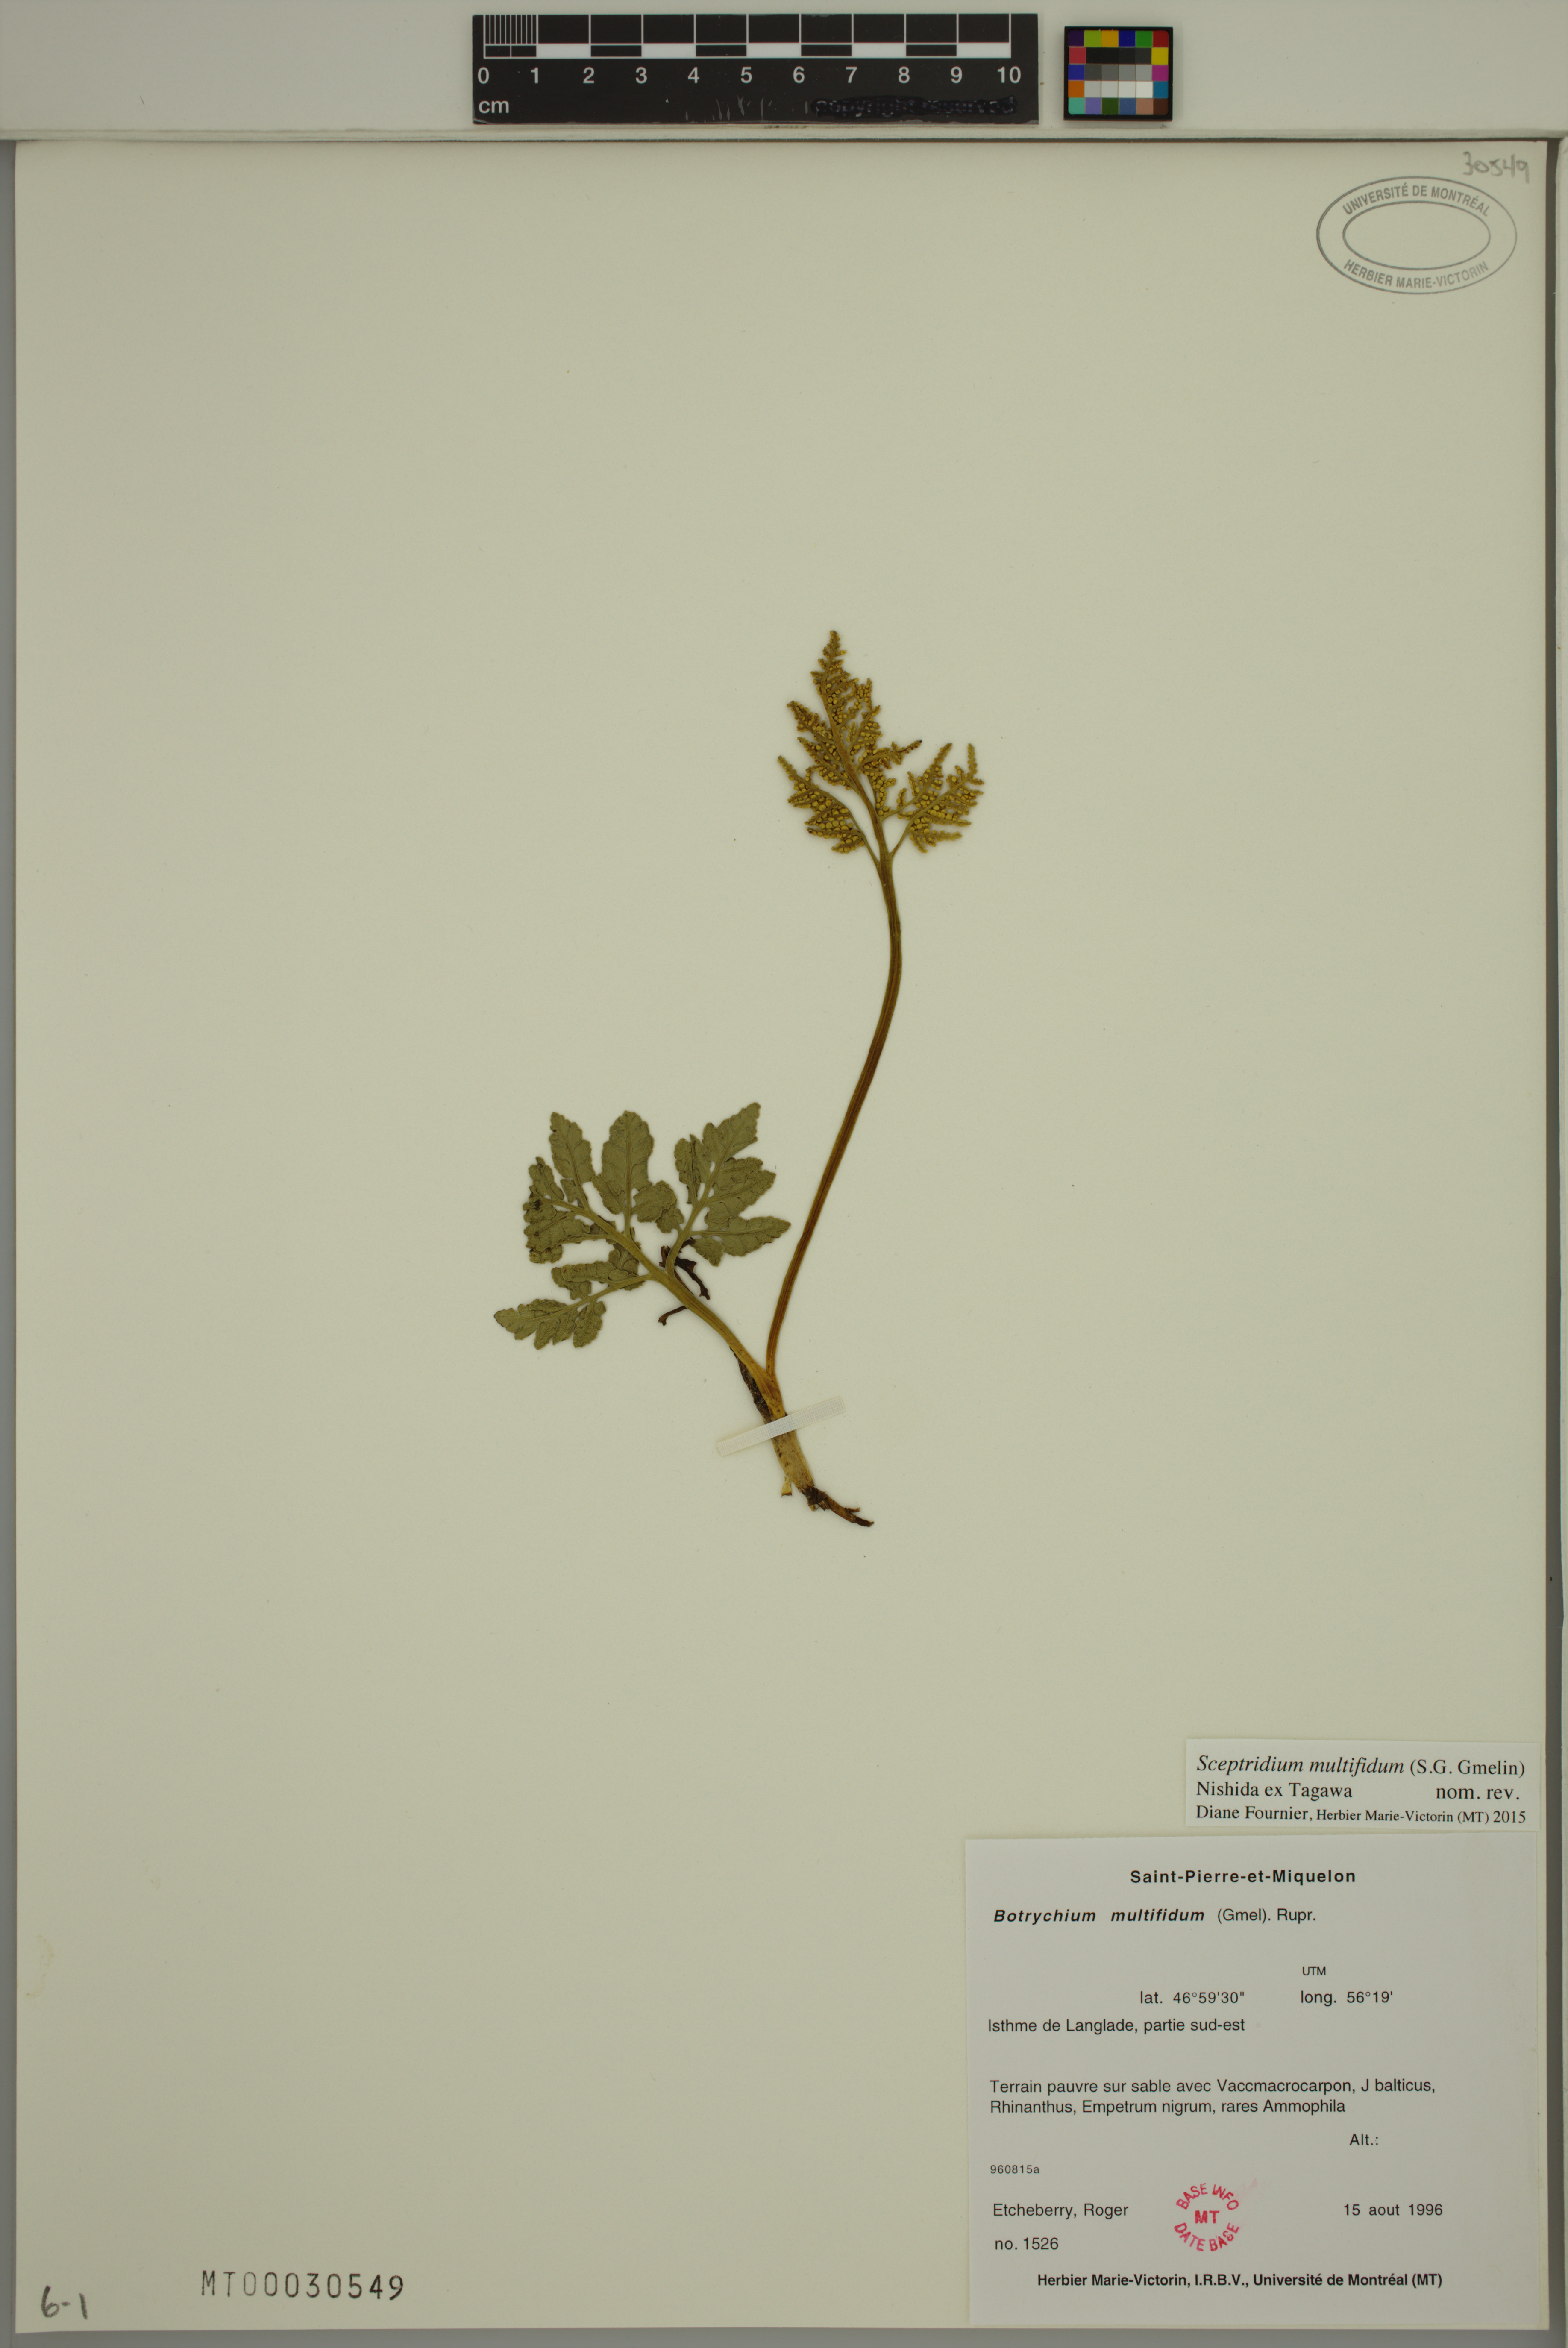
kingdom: Plantae
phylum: Tracheophyta
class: Polypodiopsida
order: Ophioglossales
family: Ophioglossaceae
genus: Sceptridium
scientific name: Sceptridium multifidum
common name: Leathery grape fern
